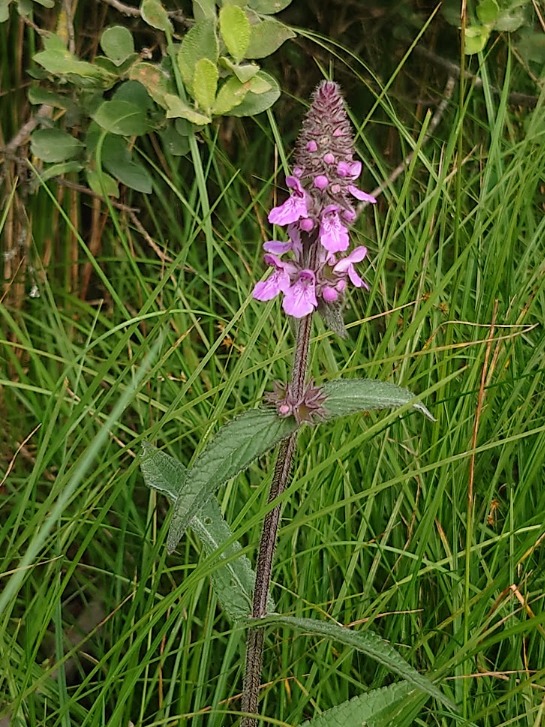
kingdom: Plantae
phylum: Tracheophyta
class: Magnoliopsida
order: Lamiales
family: Lamiaceae
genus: Stachys
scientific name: Stachys palustris
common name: Kær-galtetand
